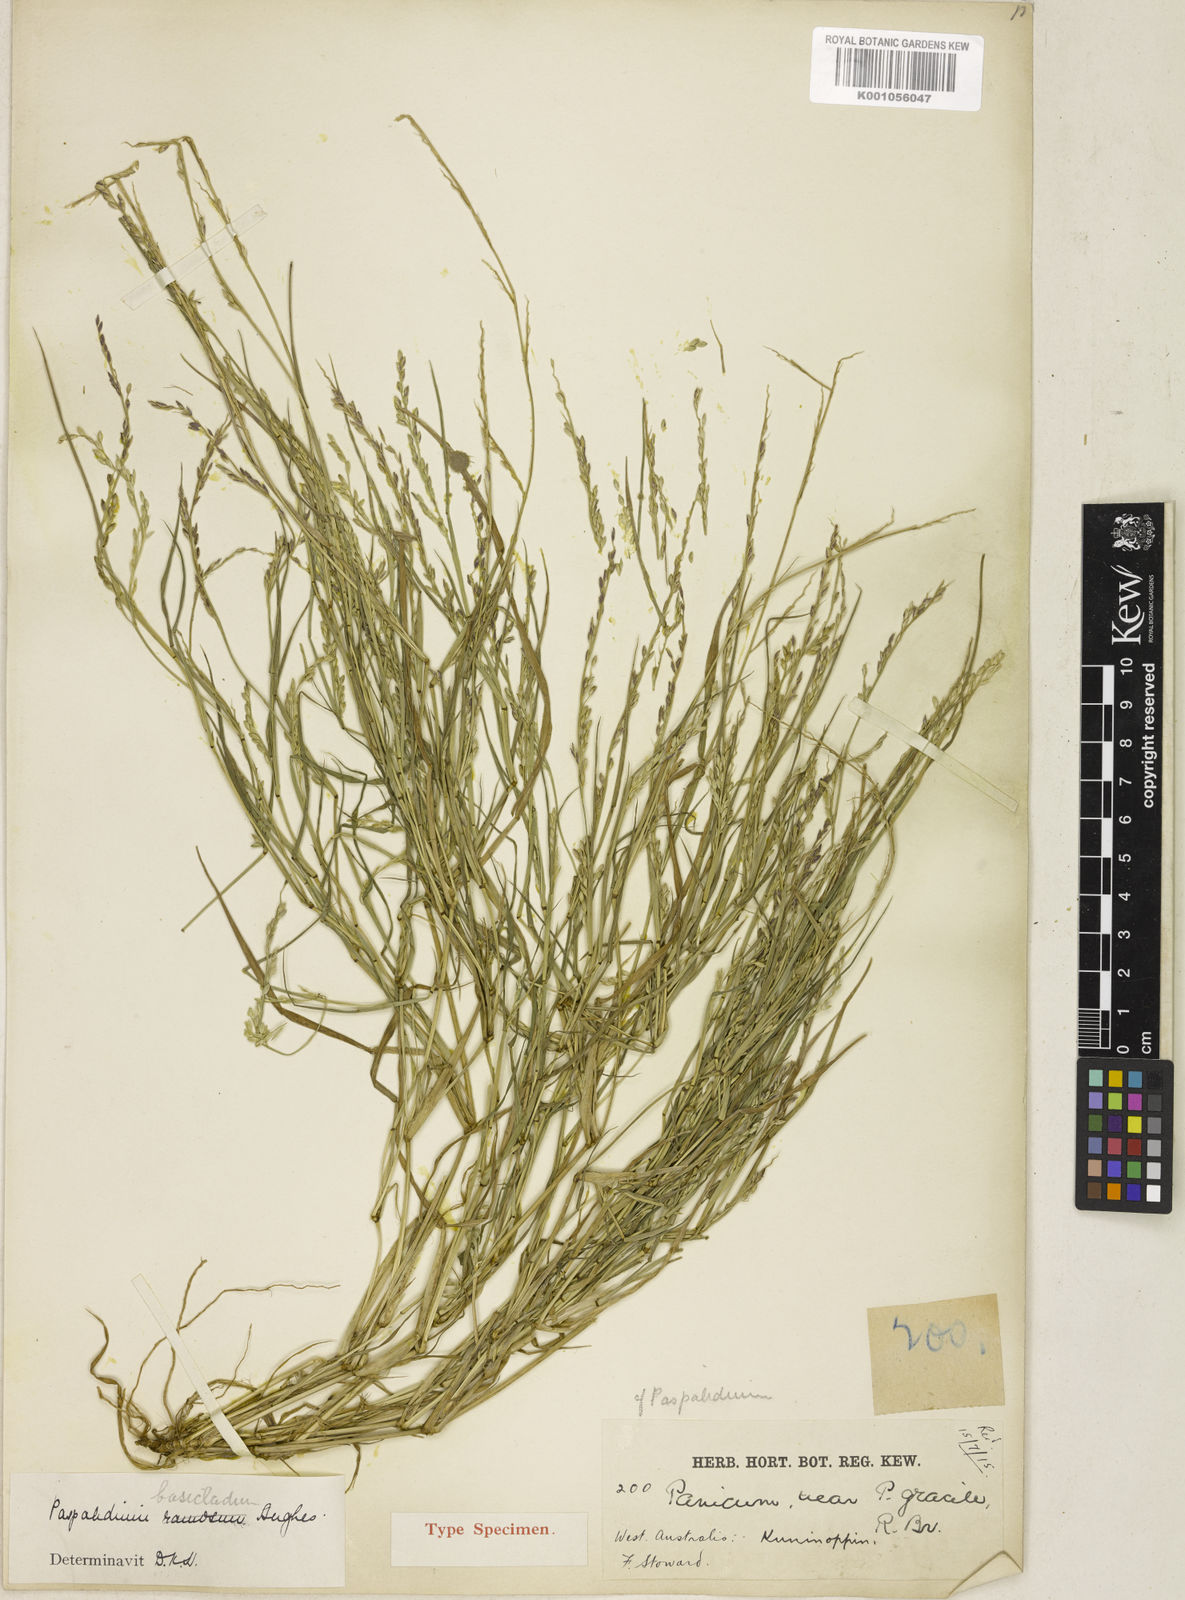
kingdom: Plantae
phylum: Tracheophyta
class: Liliopsida
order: Poales
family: Poaceae
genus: Setaria
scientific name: Setaria basiclada
